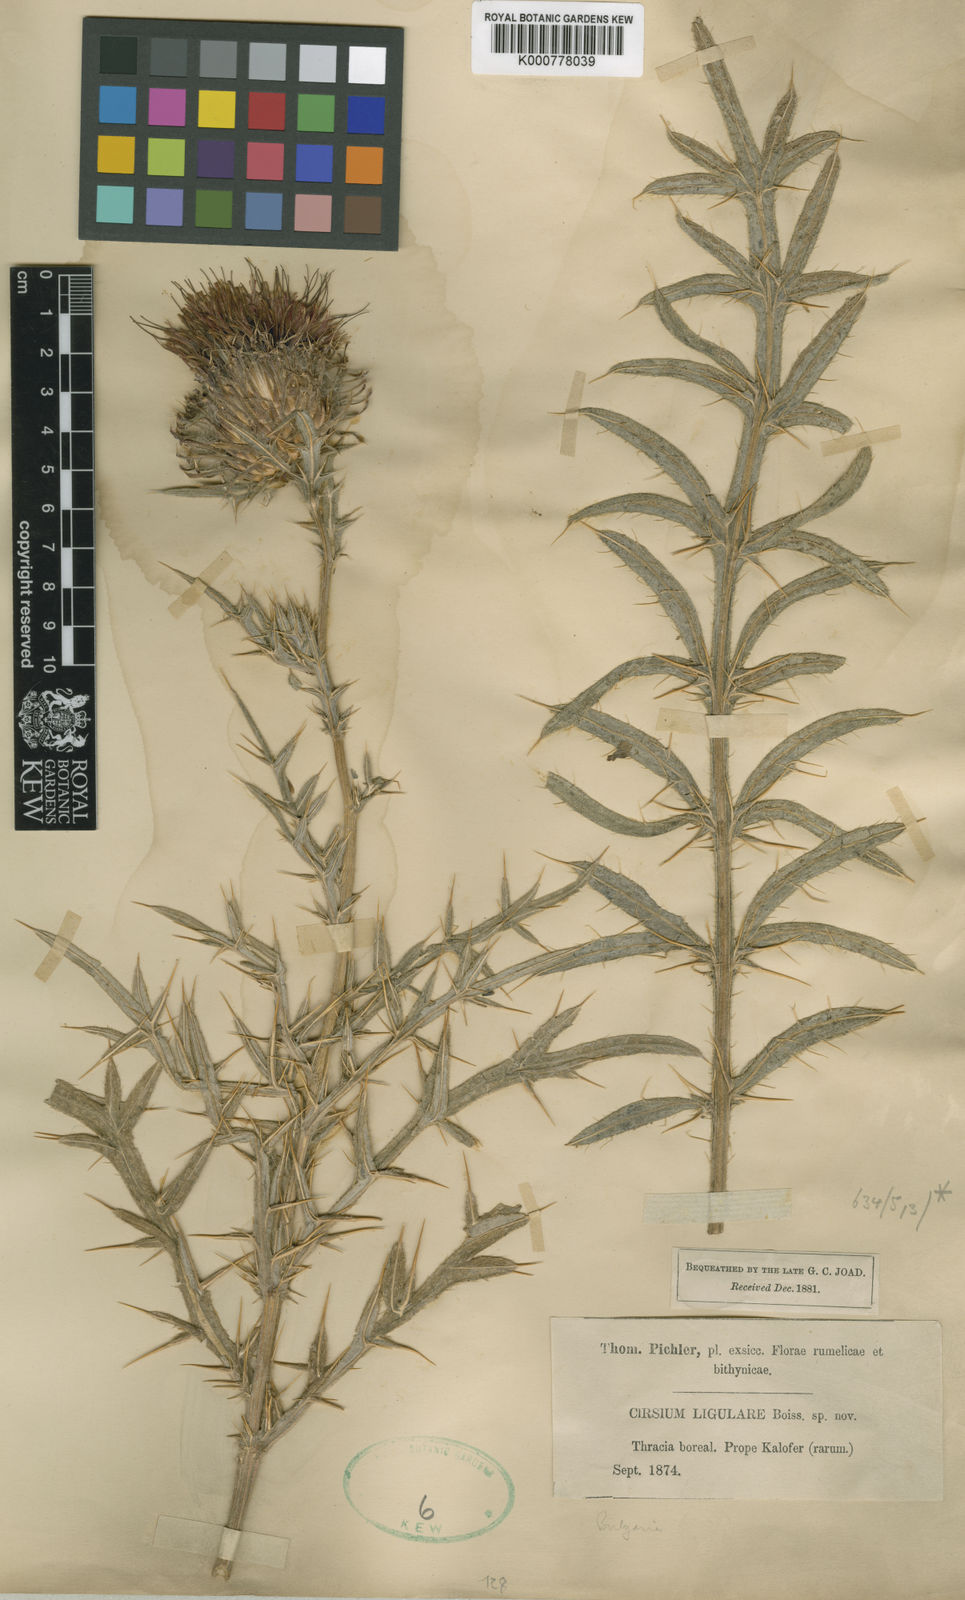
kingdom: Plantae
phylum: Tracheophyta
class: Magnoliopsida
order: Asterales
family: Asteraceae
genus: Lophiolepis
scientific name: Lophiolepis ligularis
